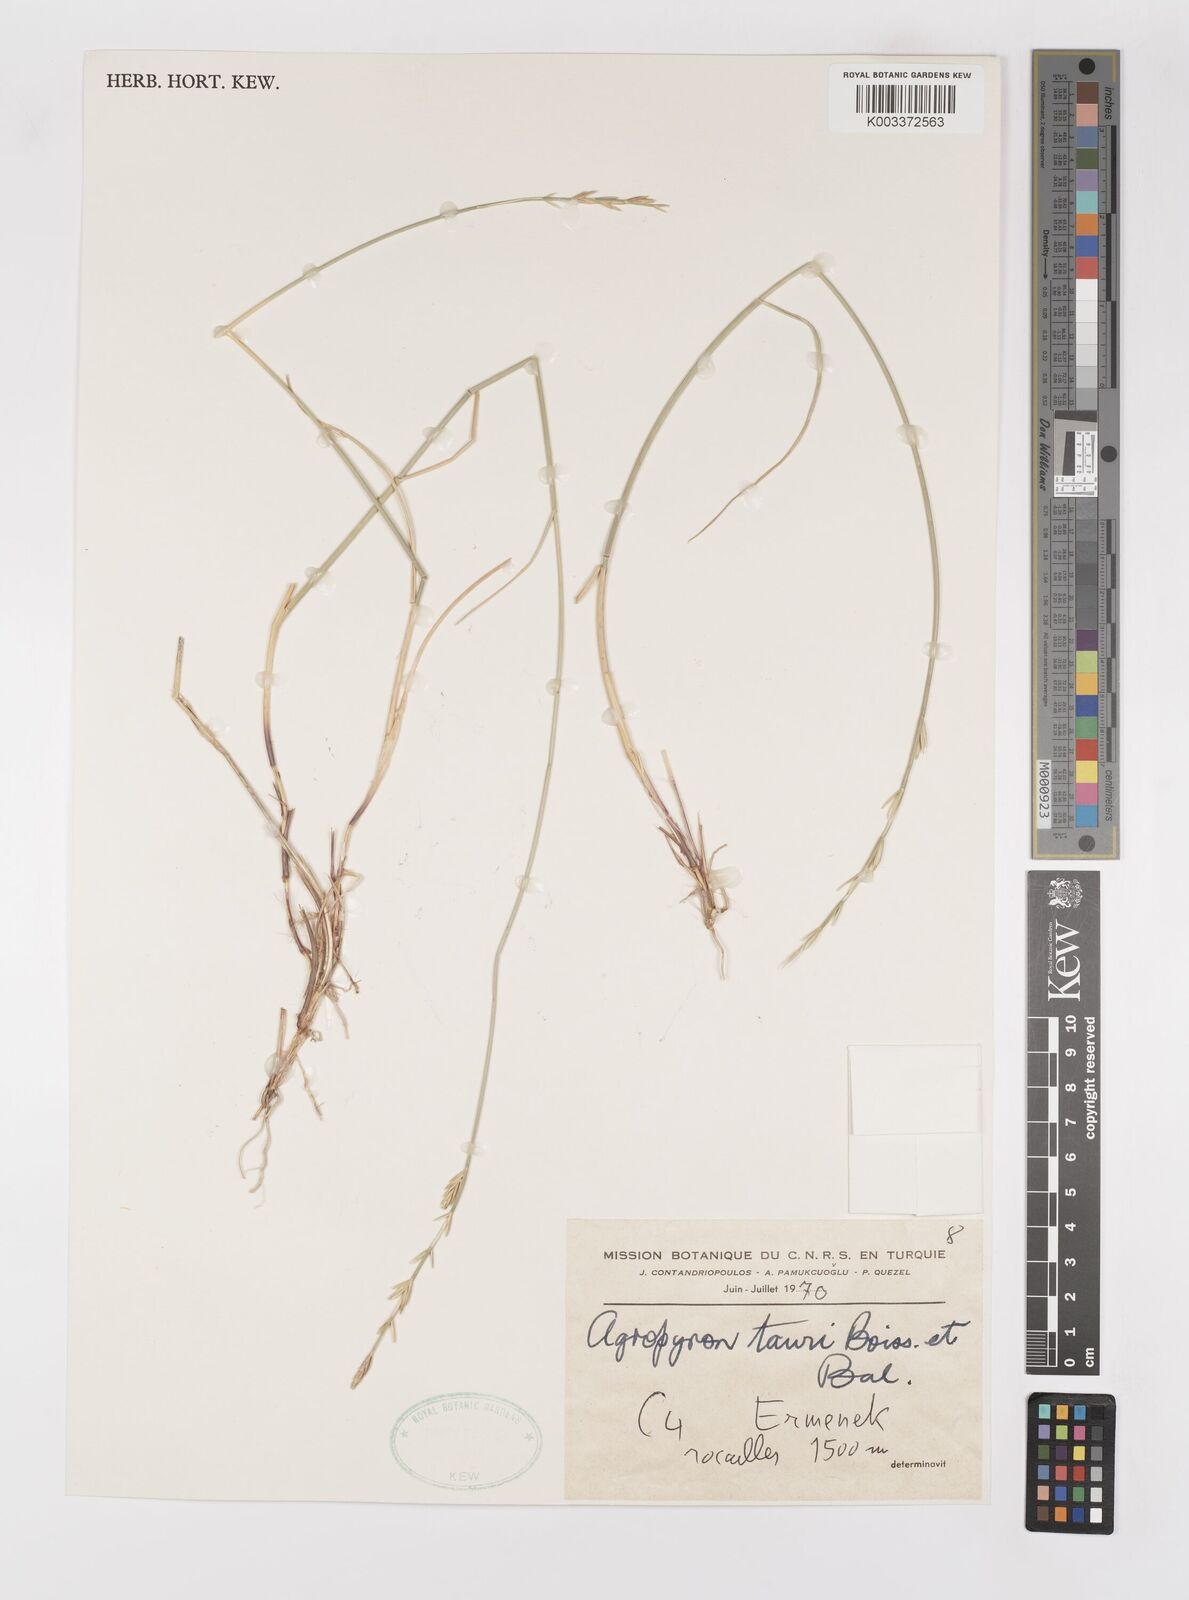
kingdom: Plantae
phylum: Tracheophyta
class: Liliopsida
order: Poales
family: Poaceae
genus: Pseudoroegneria
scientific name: Pseudoroegneria tauri
